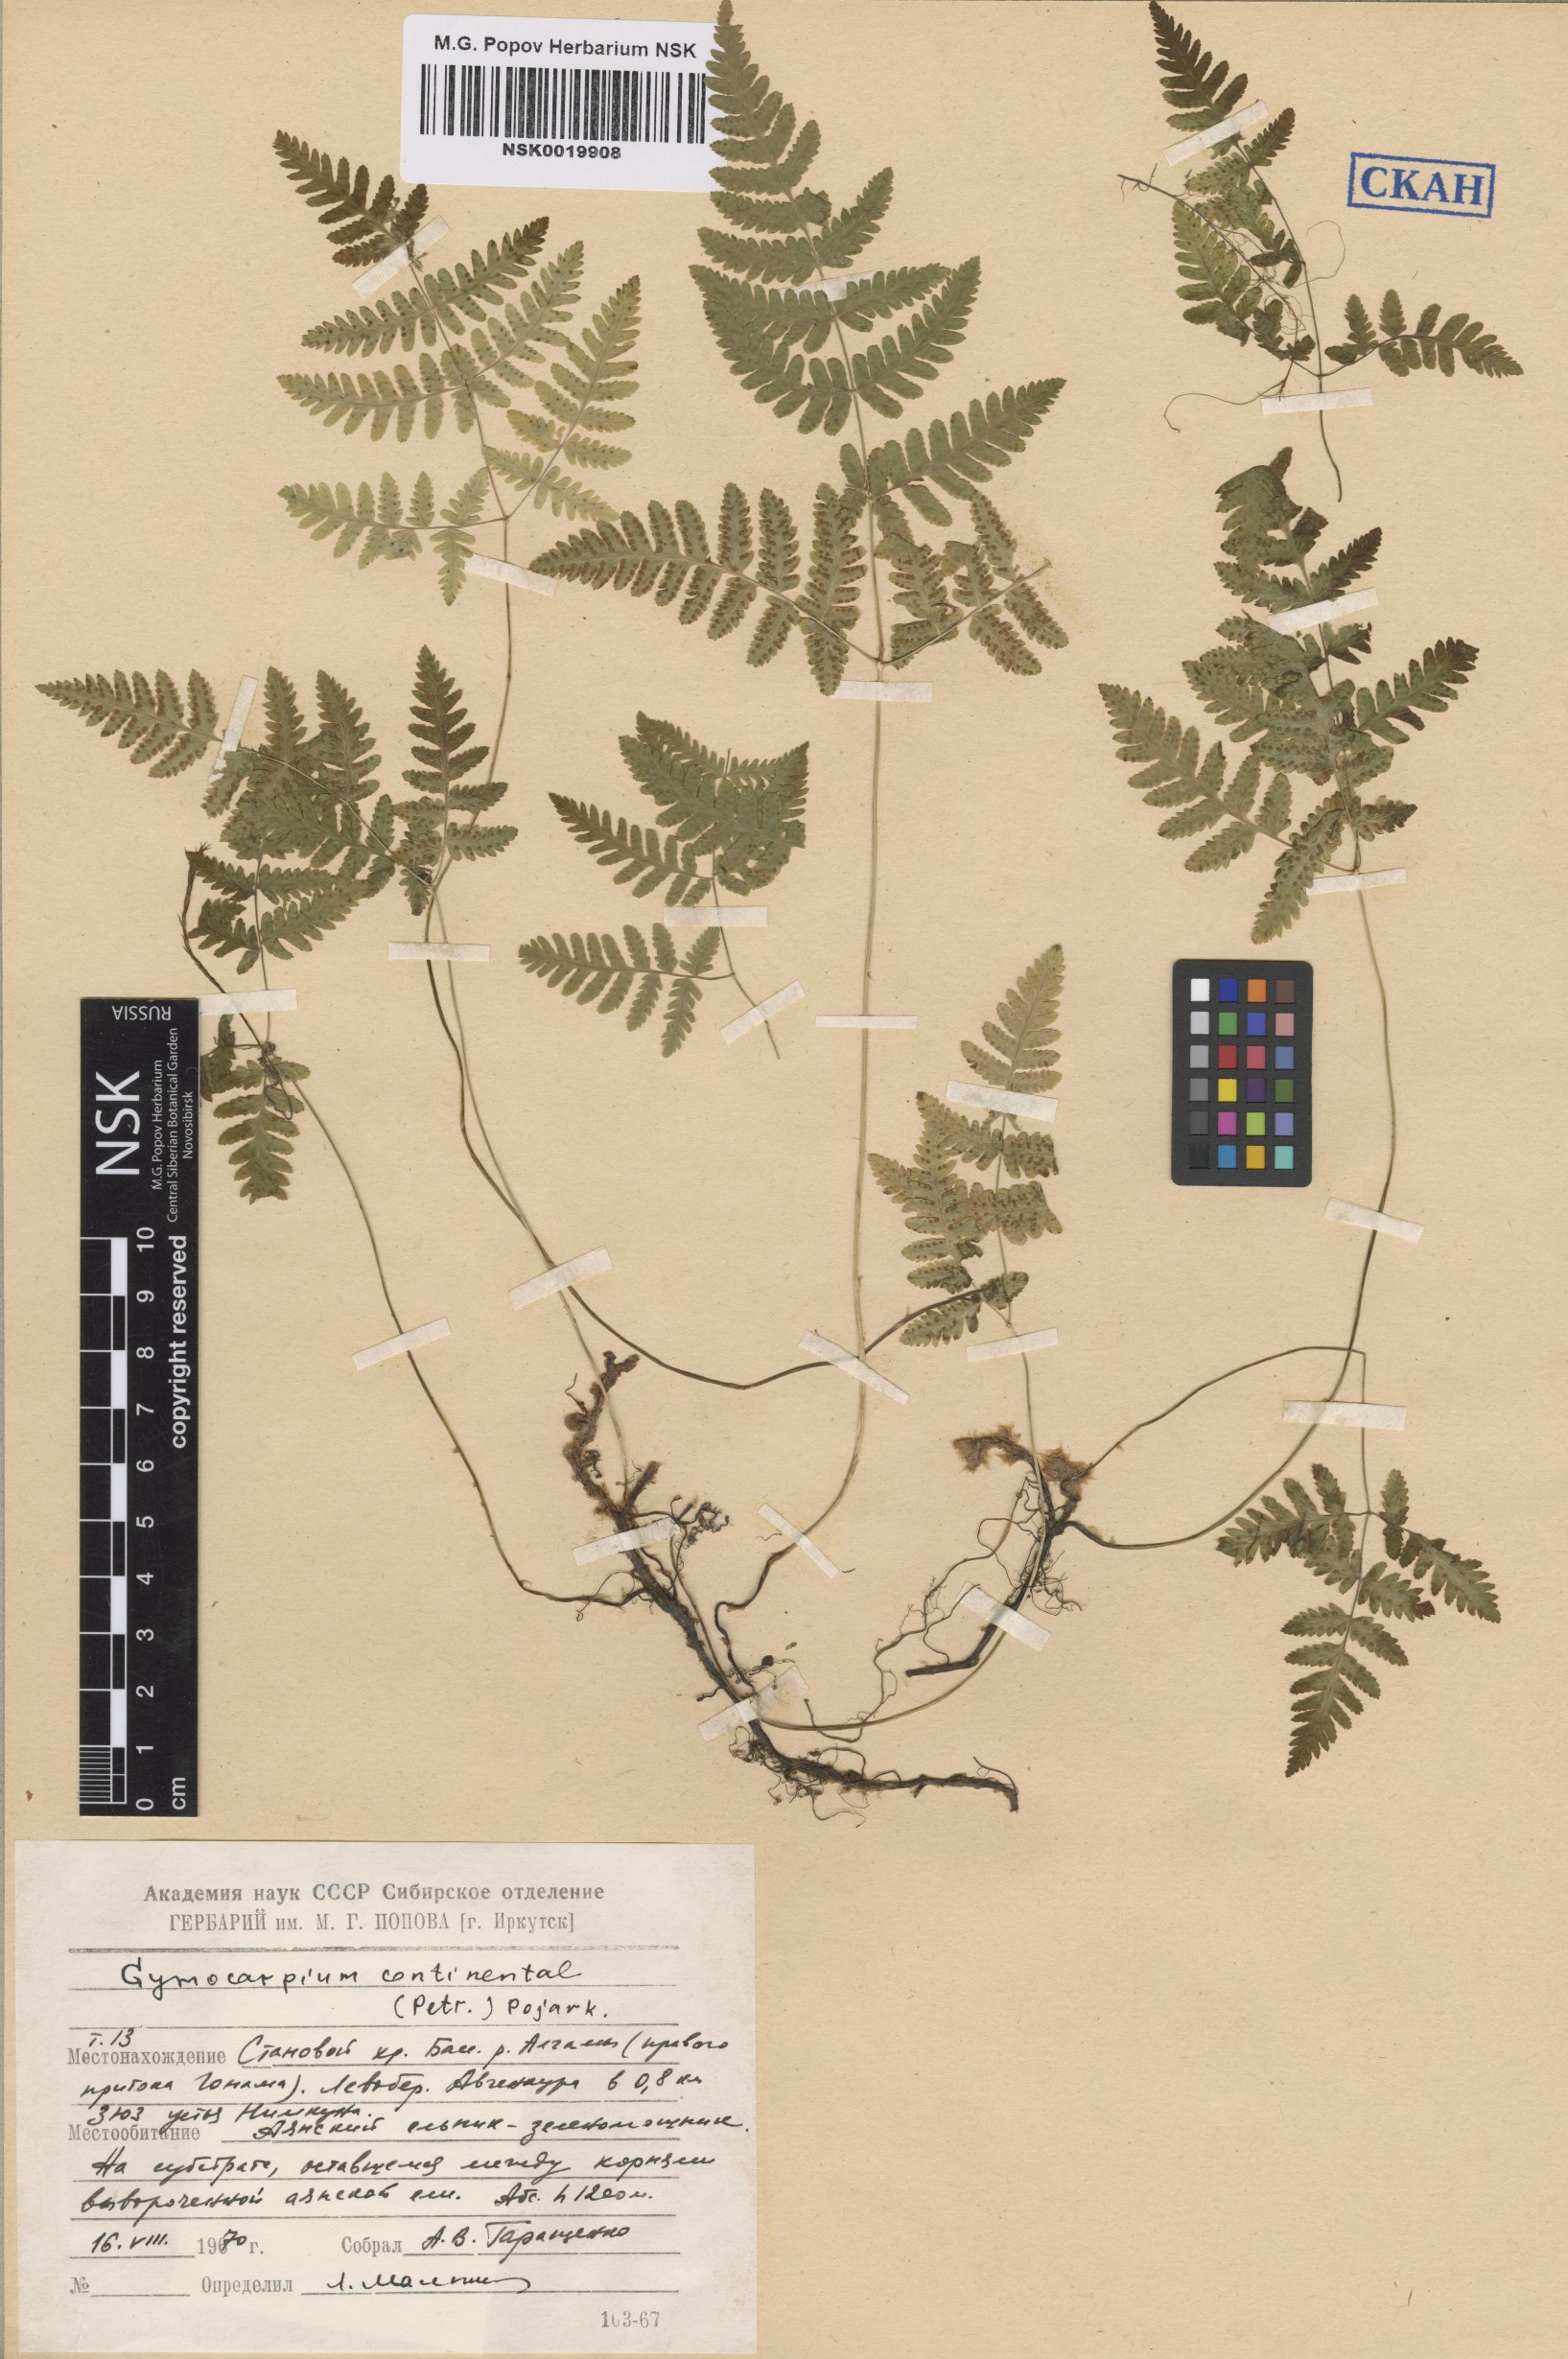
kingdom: Plantae
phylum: Tracheophyta
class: Polypodiopsida
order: Polypodiales
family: Cystopteridaceae
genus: Gymnocarpium
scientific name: Gymnocarpium continentale
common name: Asian oak fern
